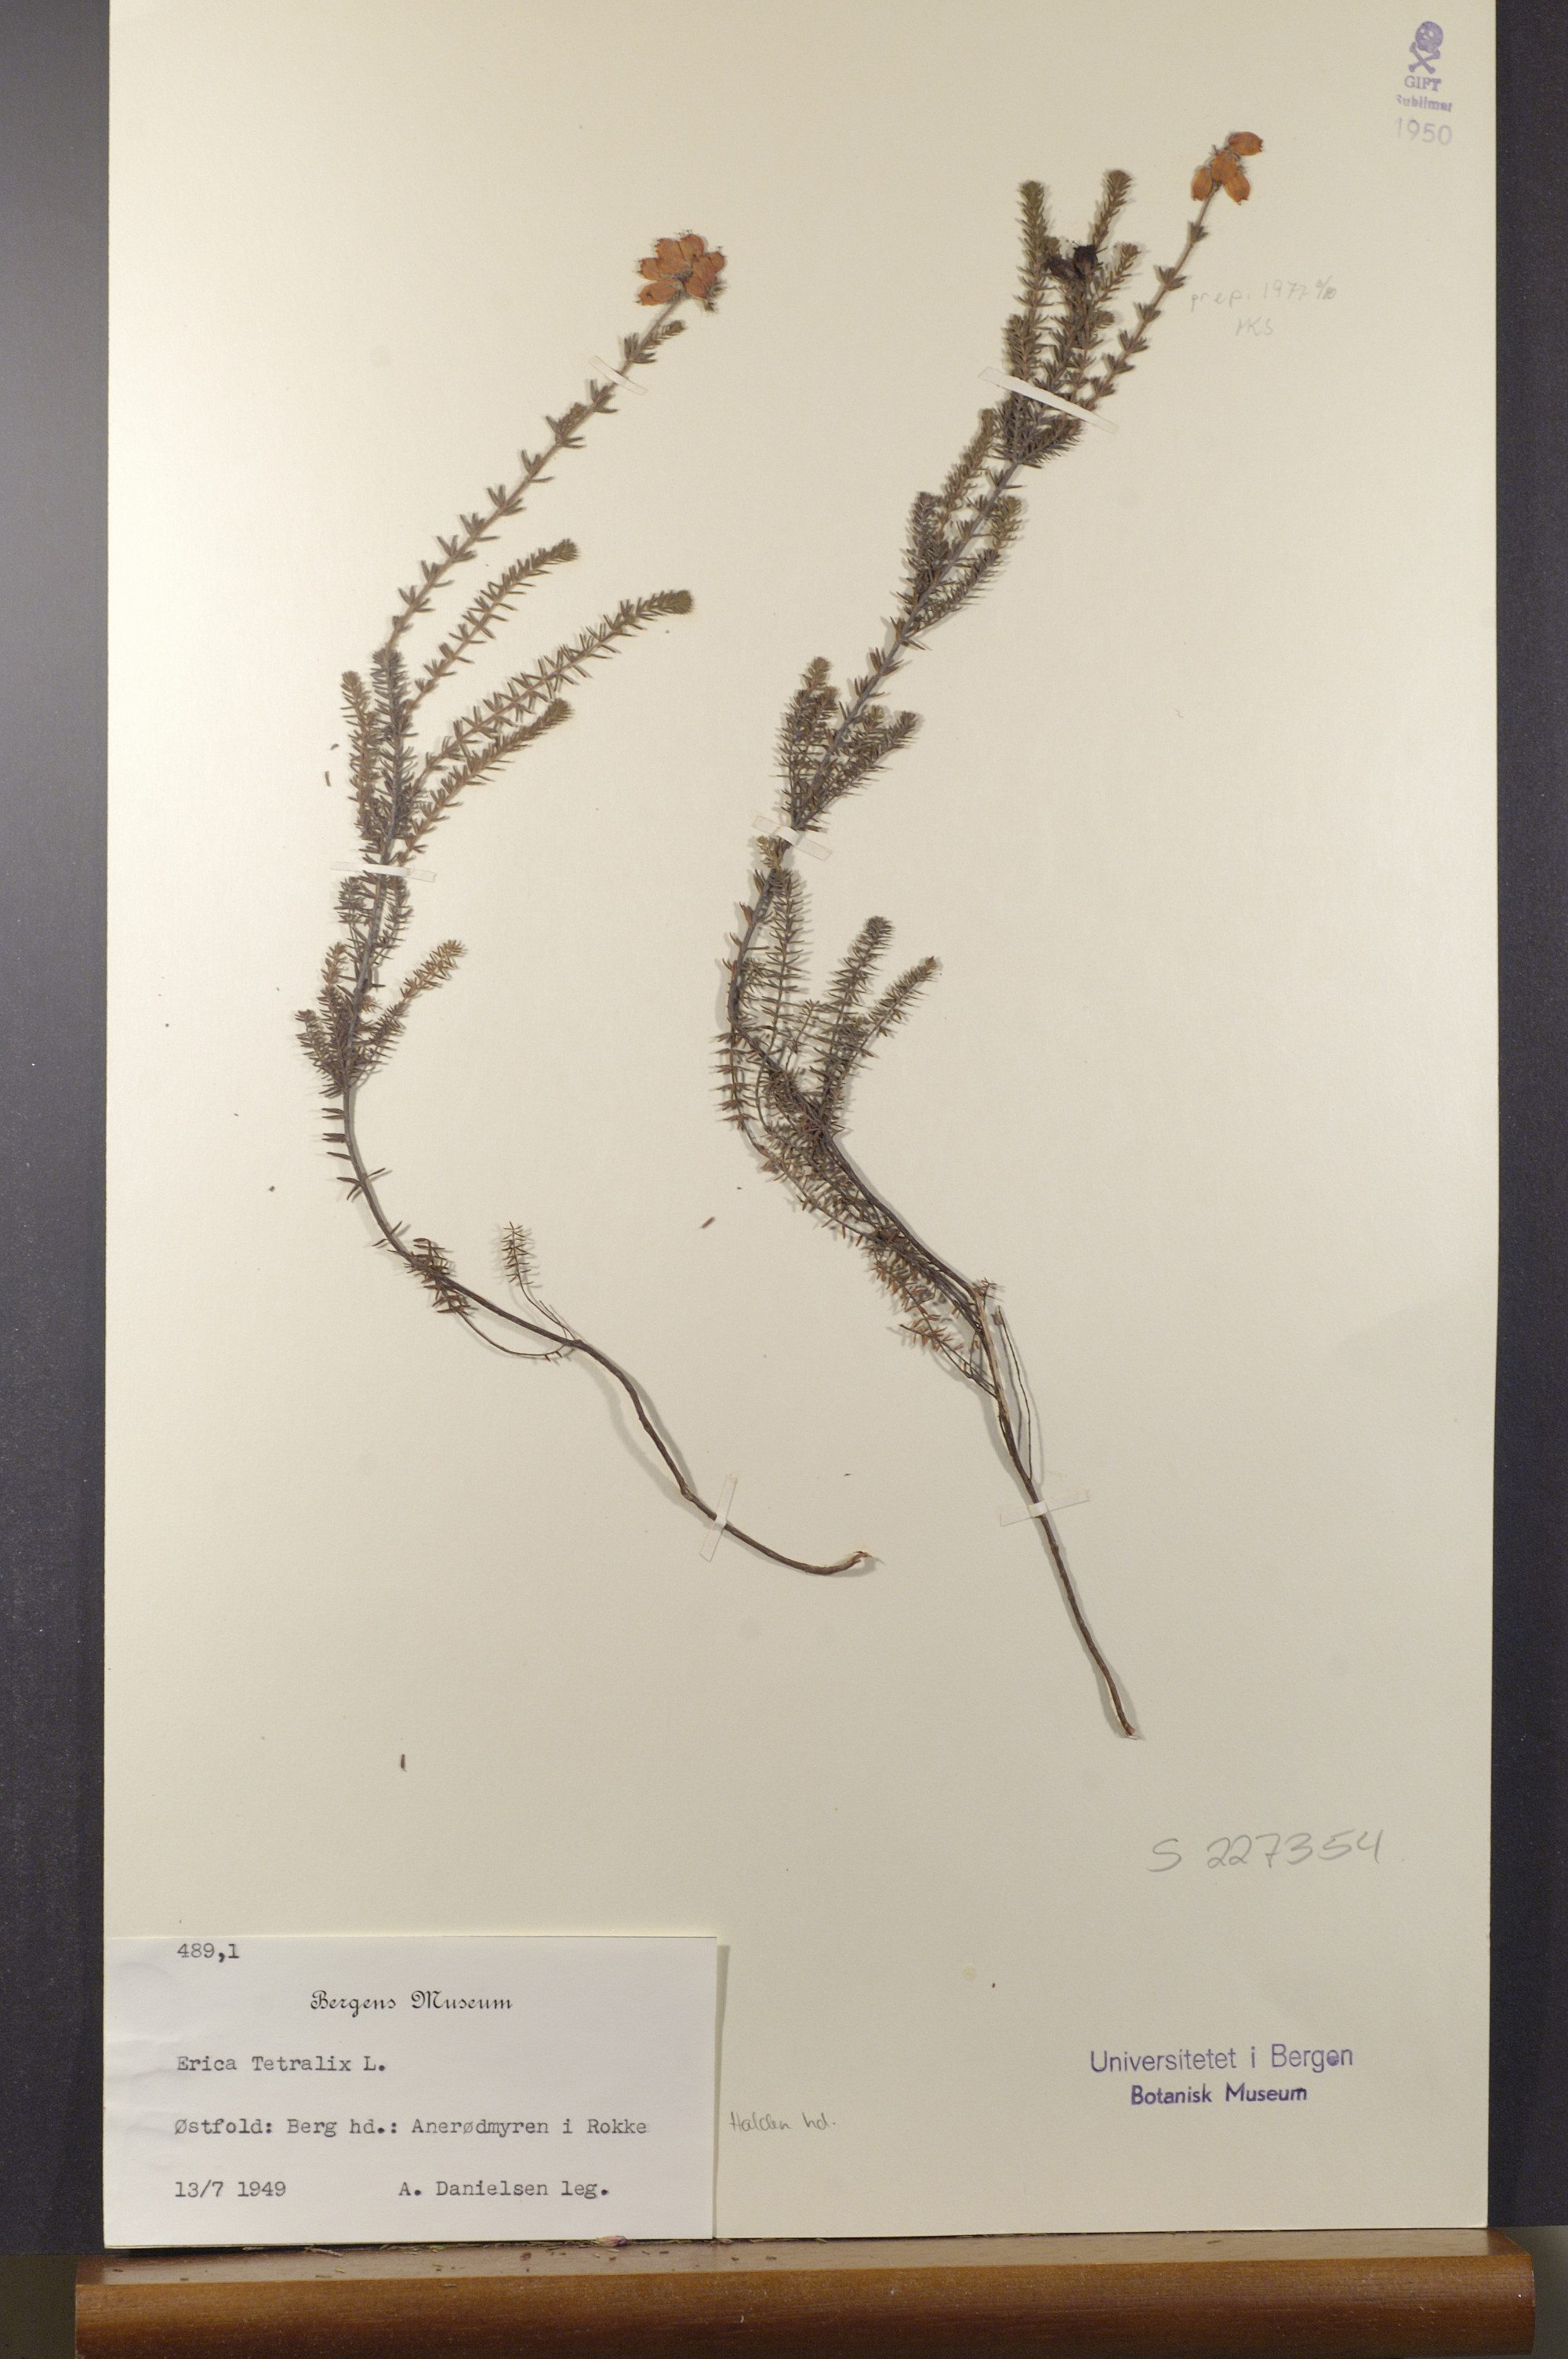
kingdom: Plantae
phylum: Tracheophyta
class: Magnoliopsida
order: Ericales
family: Ericaceae
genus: Erica
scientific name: Erica tetralix
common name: Cross-leaved heath
